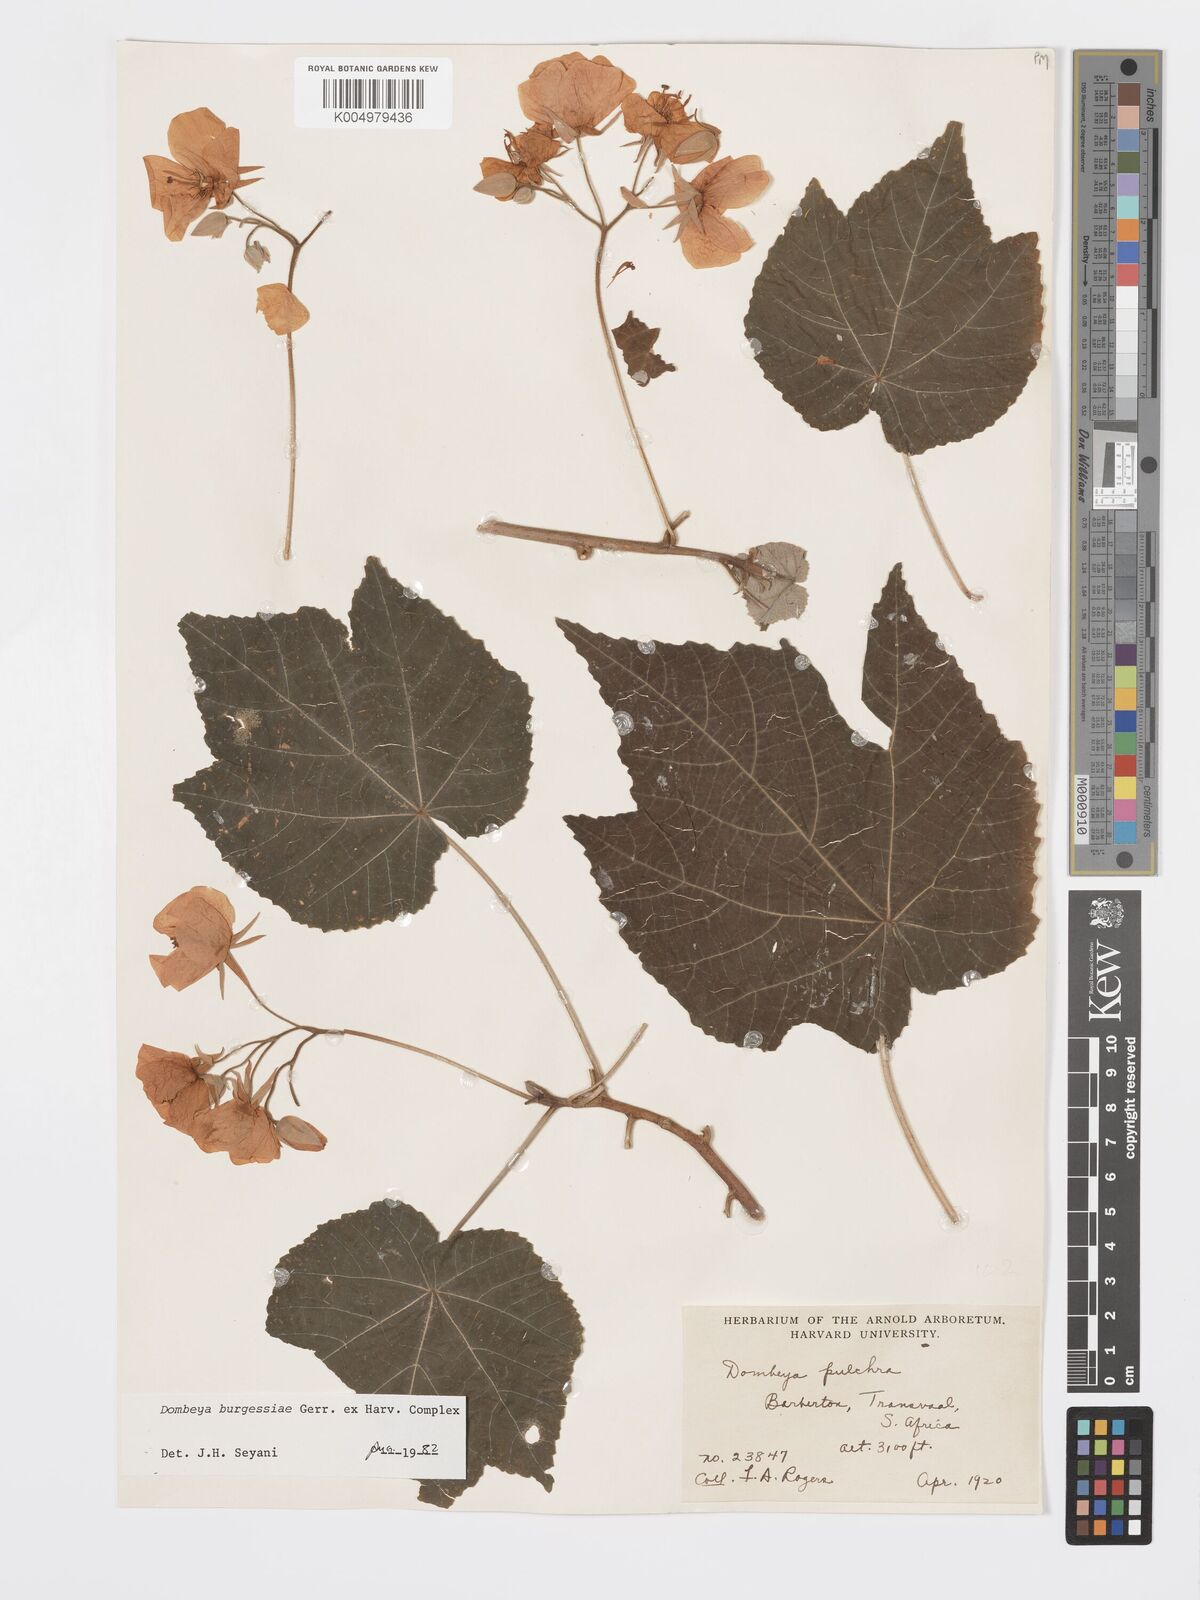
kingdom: Plantae
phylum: Tracheophyta
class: Magnoliopsida
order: Malvales
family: Malvaceae
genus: Dombeya
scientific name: Dombeya burgessiae
